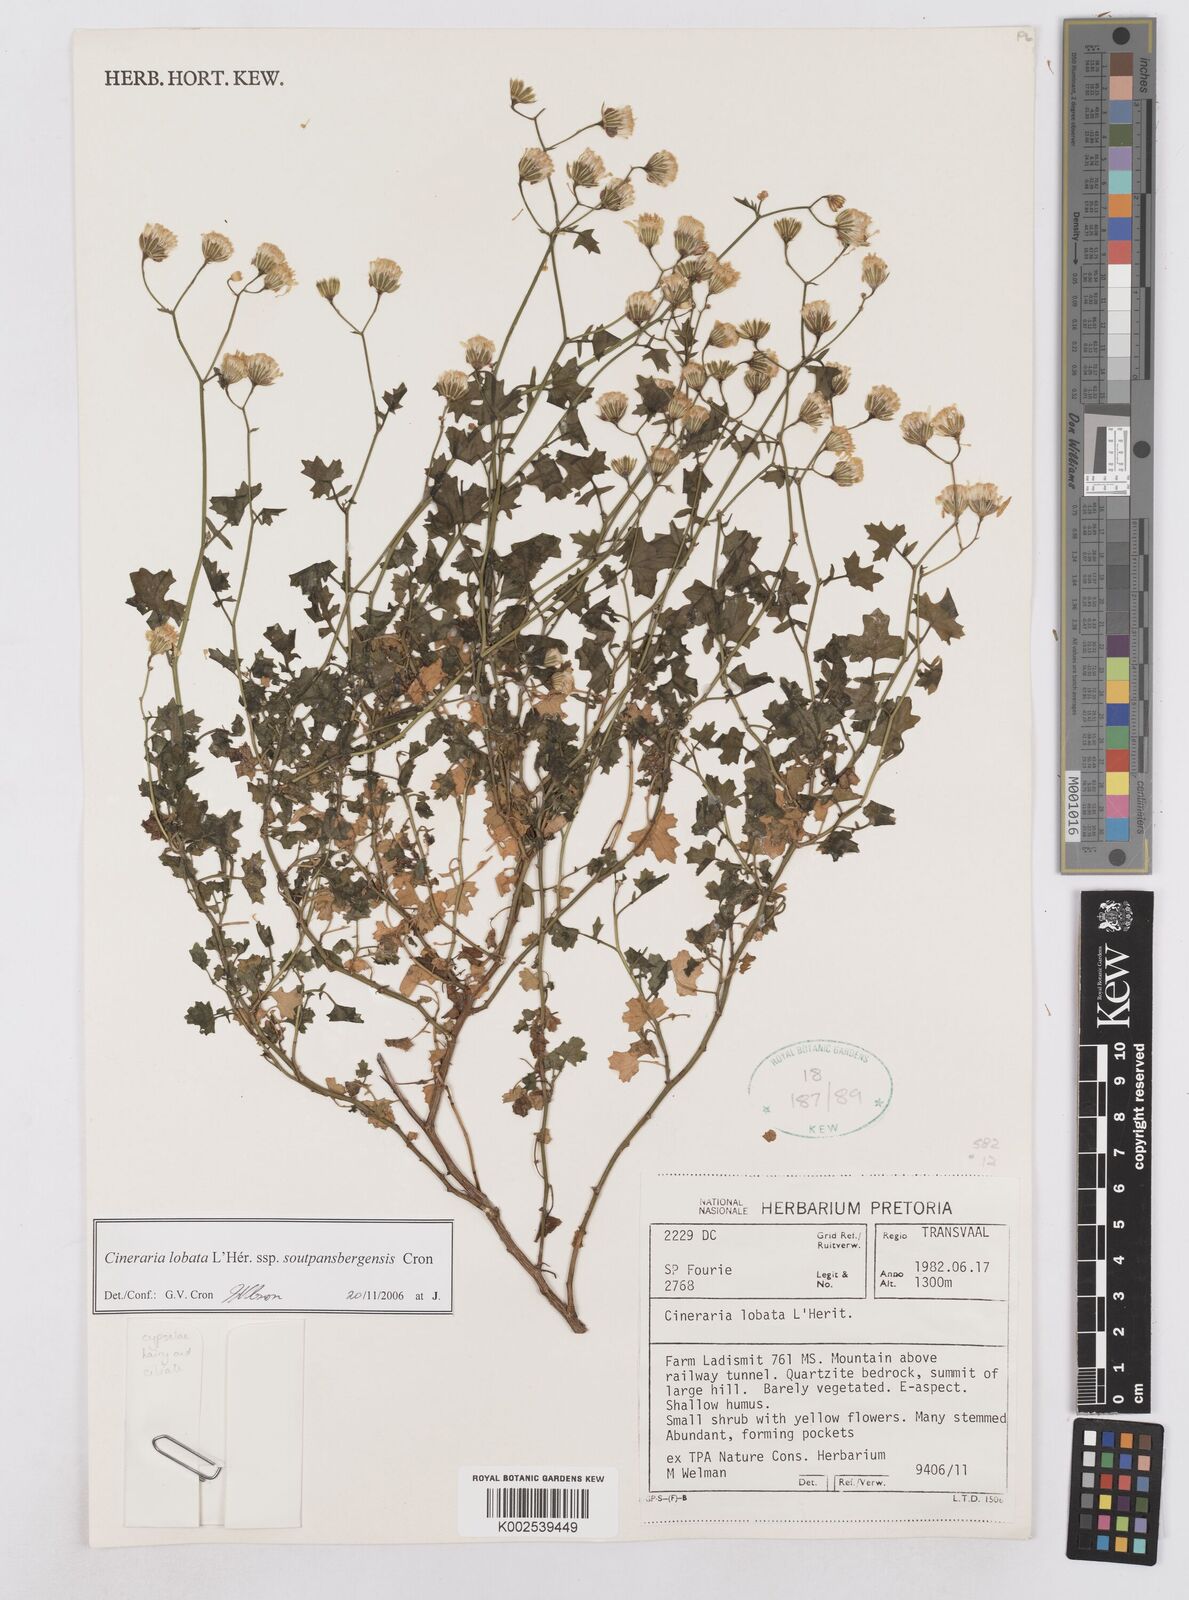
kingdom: Plantae
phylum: Tracheophyta
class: Magnoliopsida
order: Asterales
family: Asteraceae
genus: Cineraria
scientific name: Cineraria lobata
